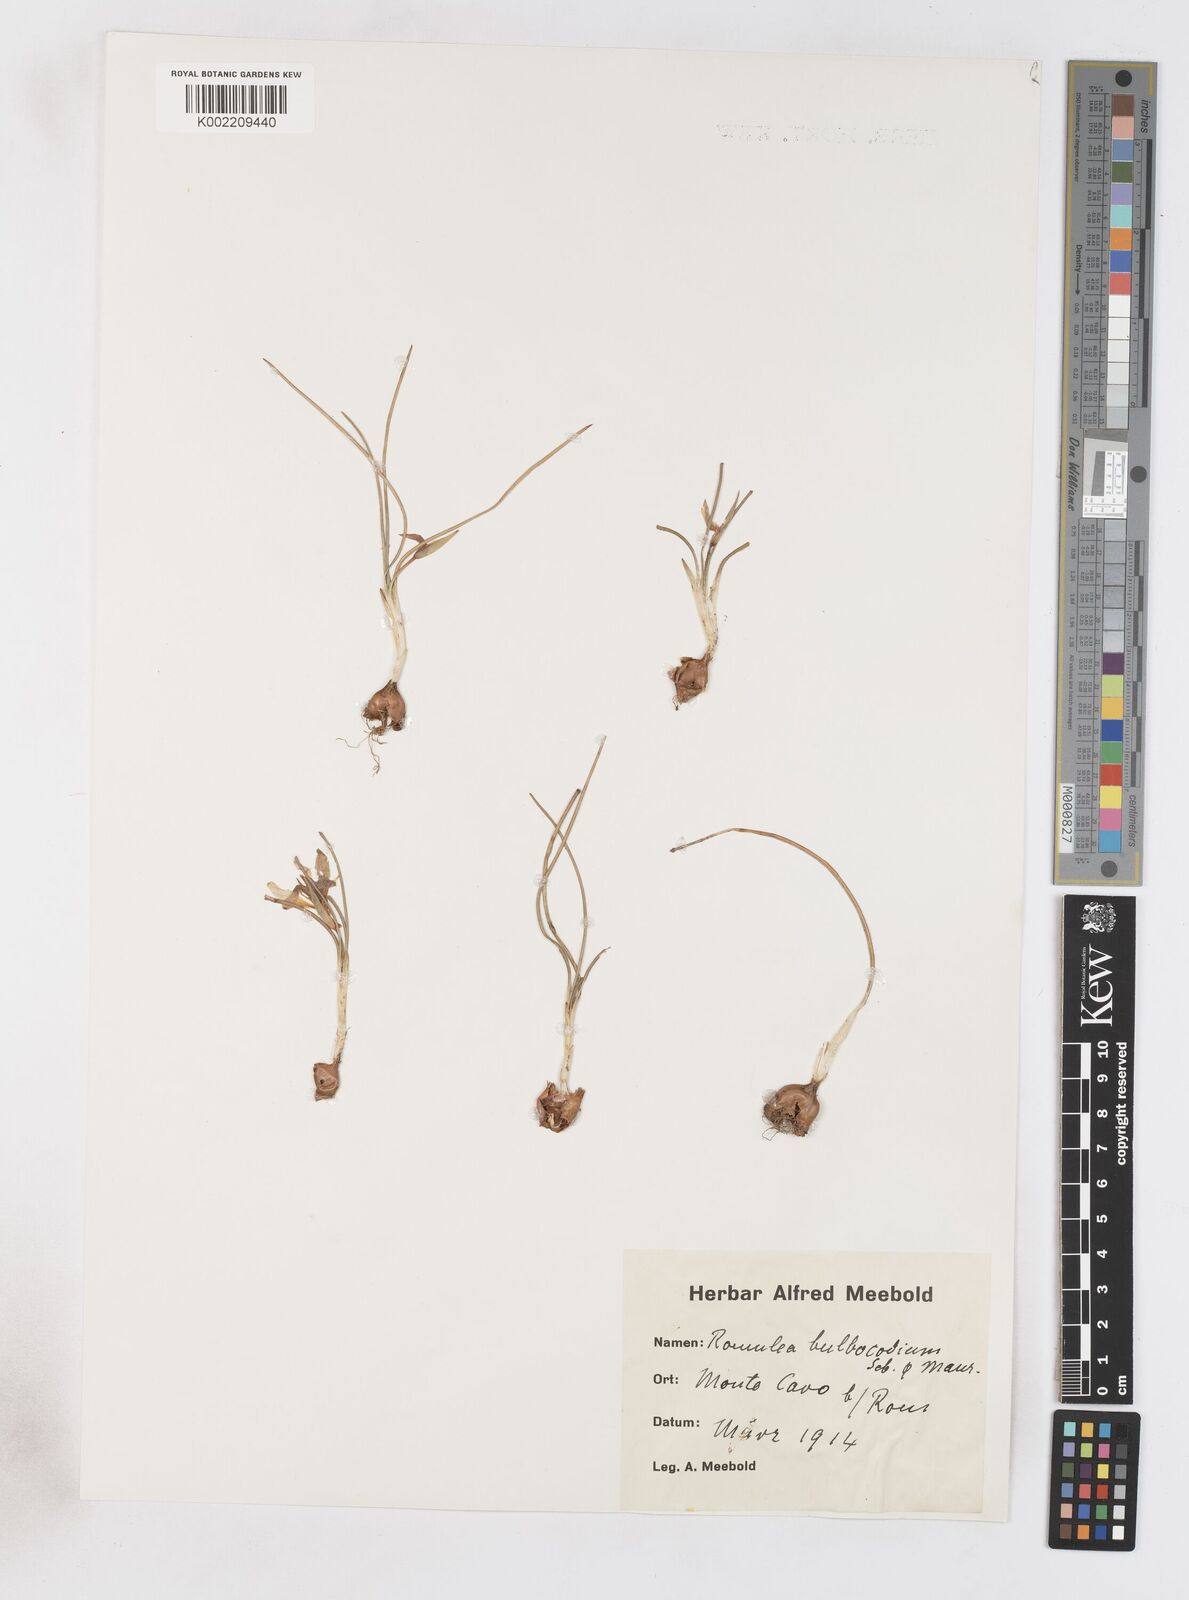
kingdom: Plantae
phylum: Tracheophyta
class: Liliopsida
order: Asparagales
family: Iridaceae
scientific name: Iridaceae
